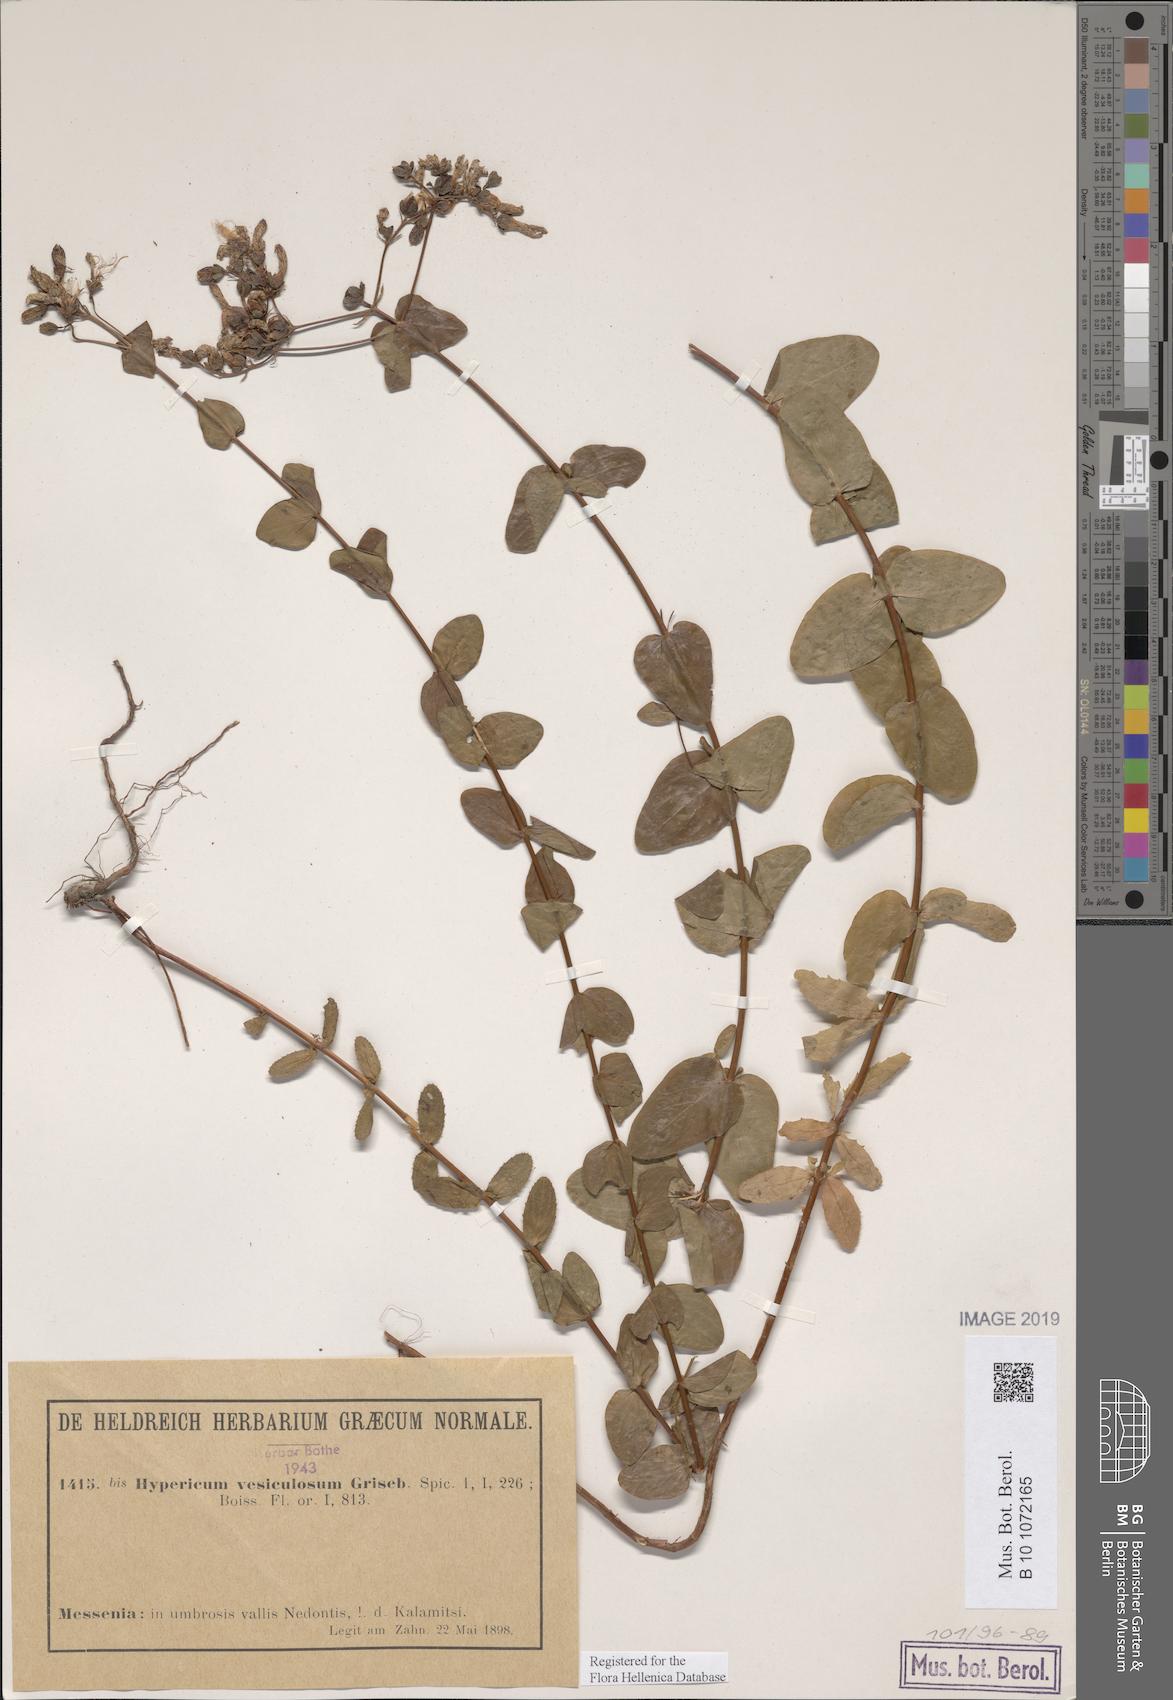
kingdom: Plantae
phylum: Tracheophyta
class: Magnoliopsida
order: Malpighiales
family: Hypericaceae
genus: Hypericum
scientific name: Hypericum vesiculosum
